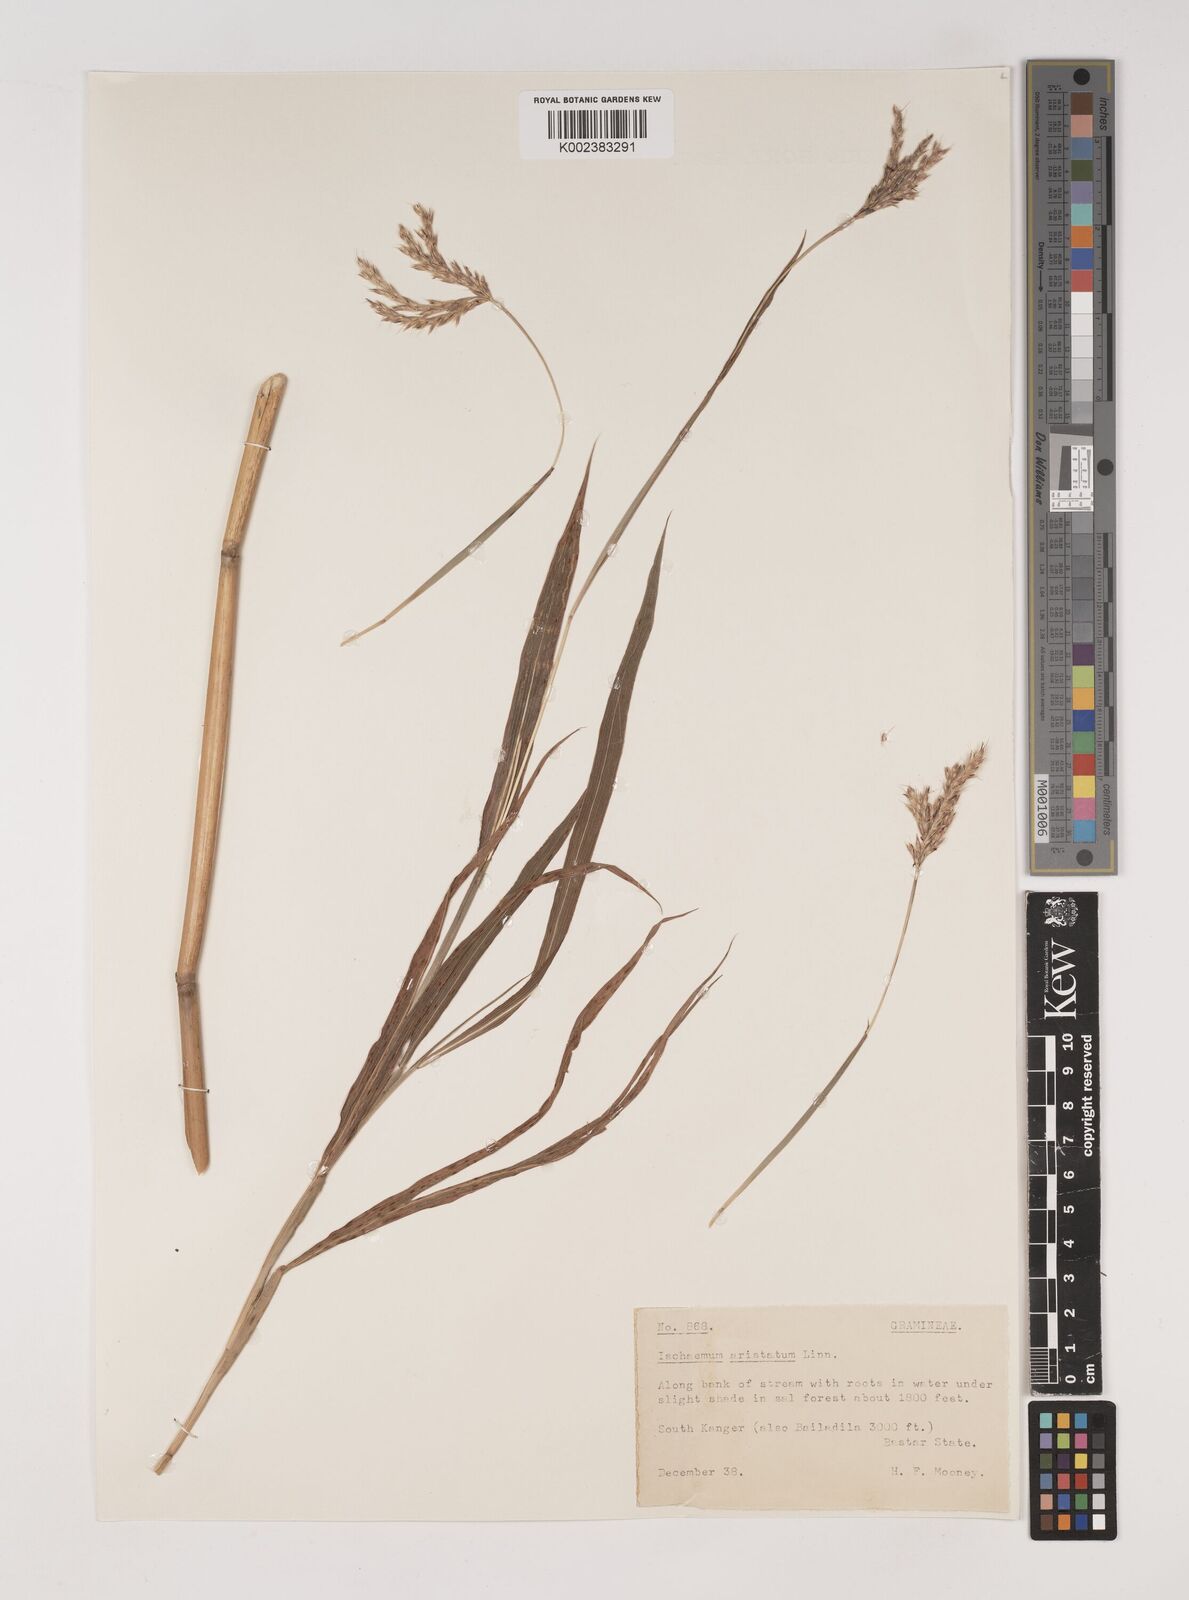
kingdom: Plantae
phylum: Tracheophyta
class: Liliopsida
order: Poales
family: Poaceae
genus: Polytrias
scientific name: Polytrias indica
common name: Indian murainagrass
